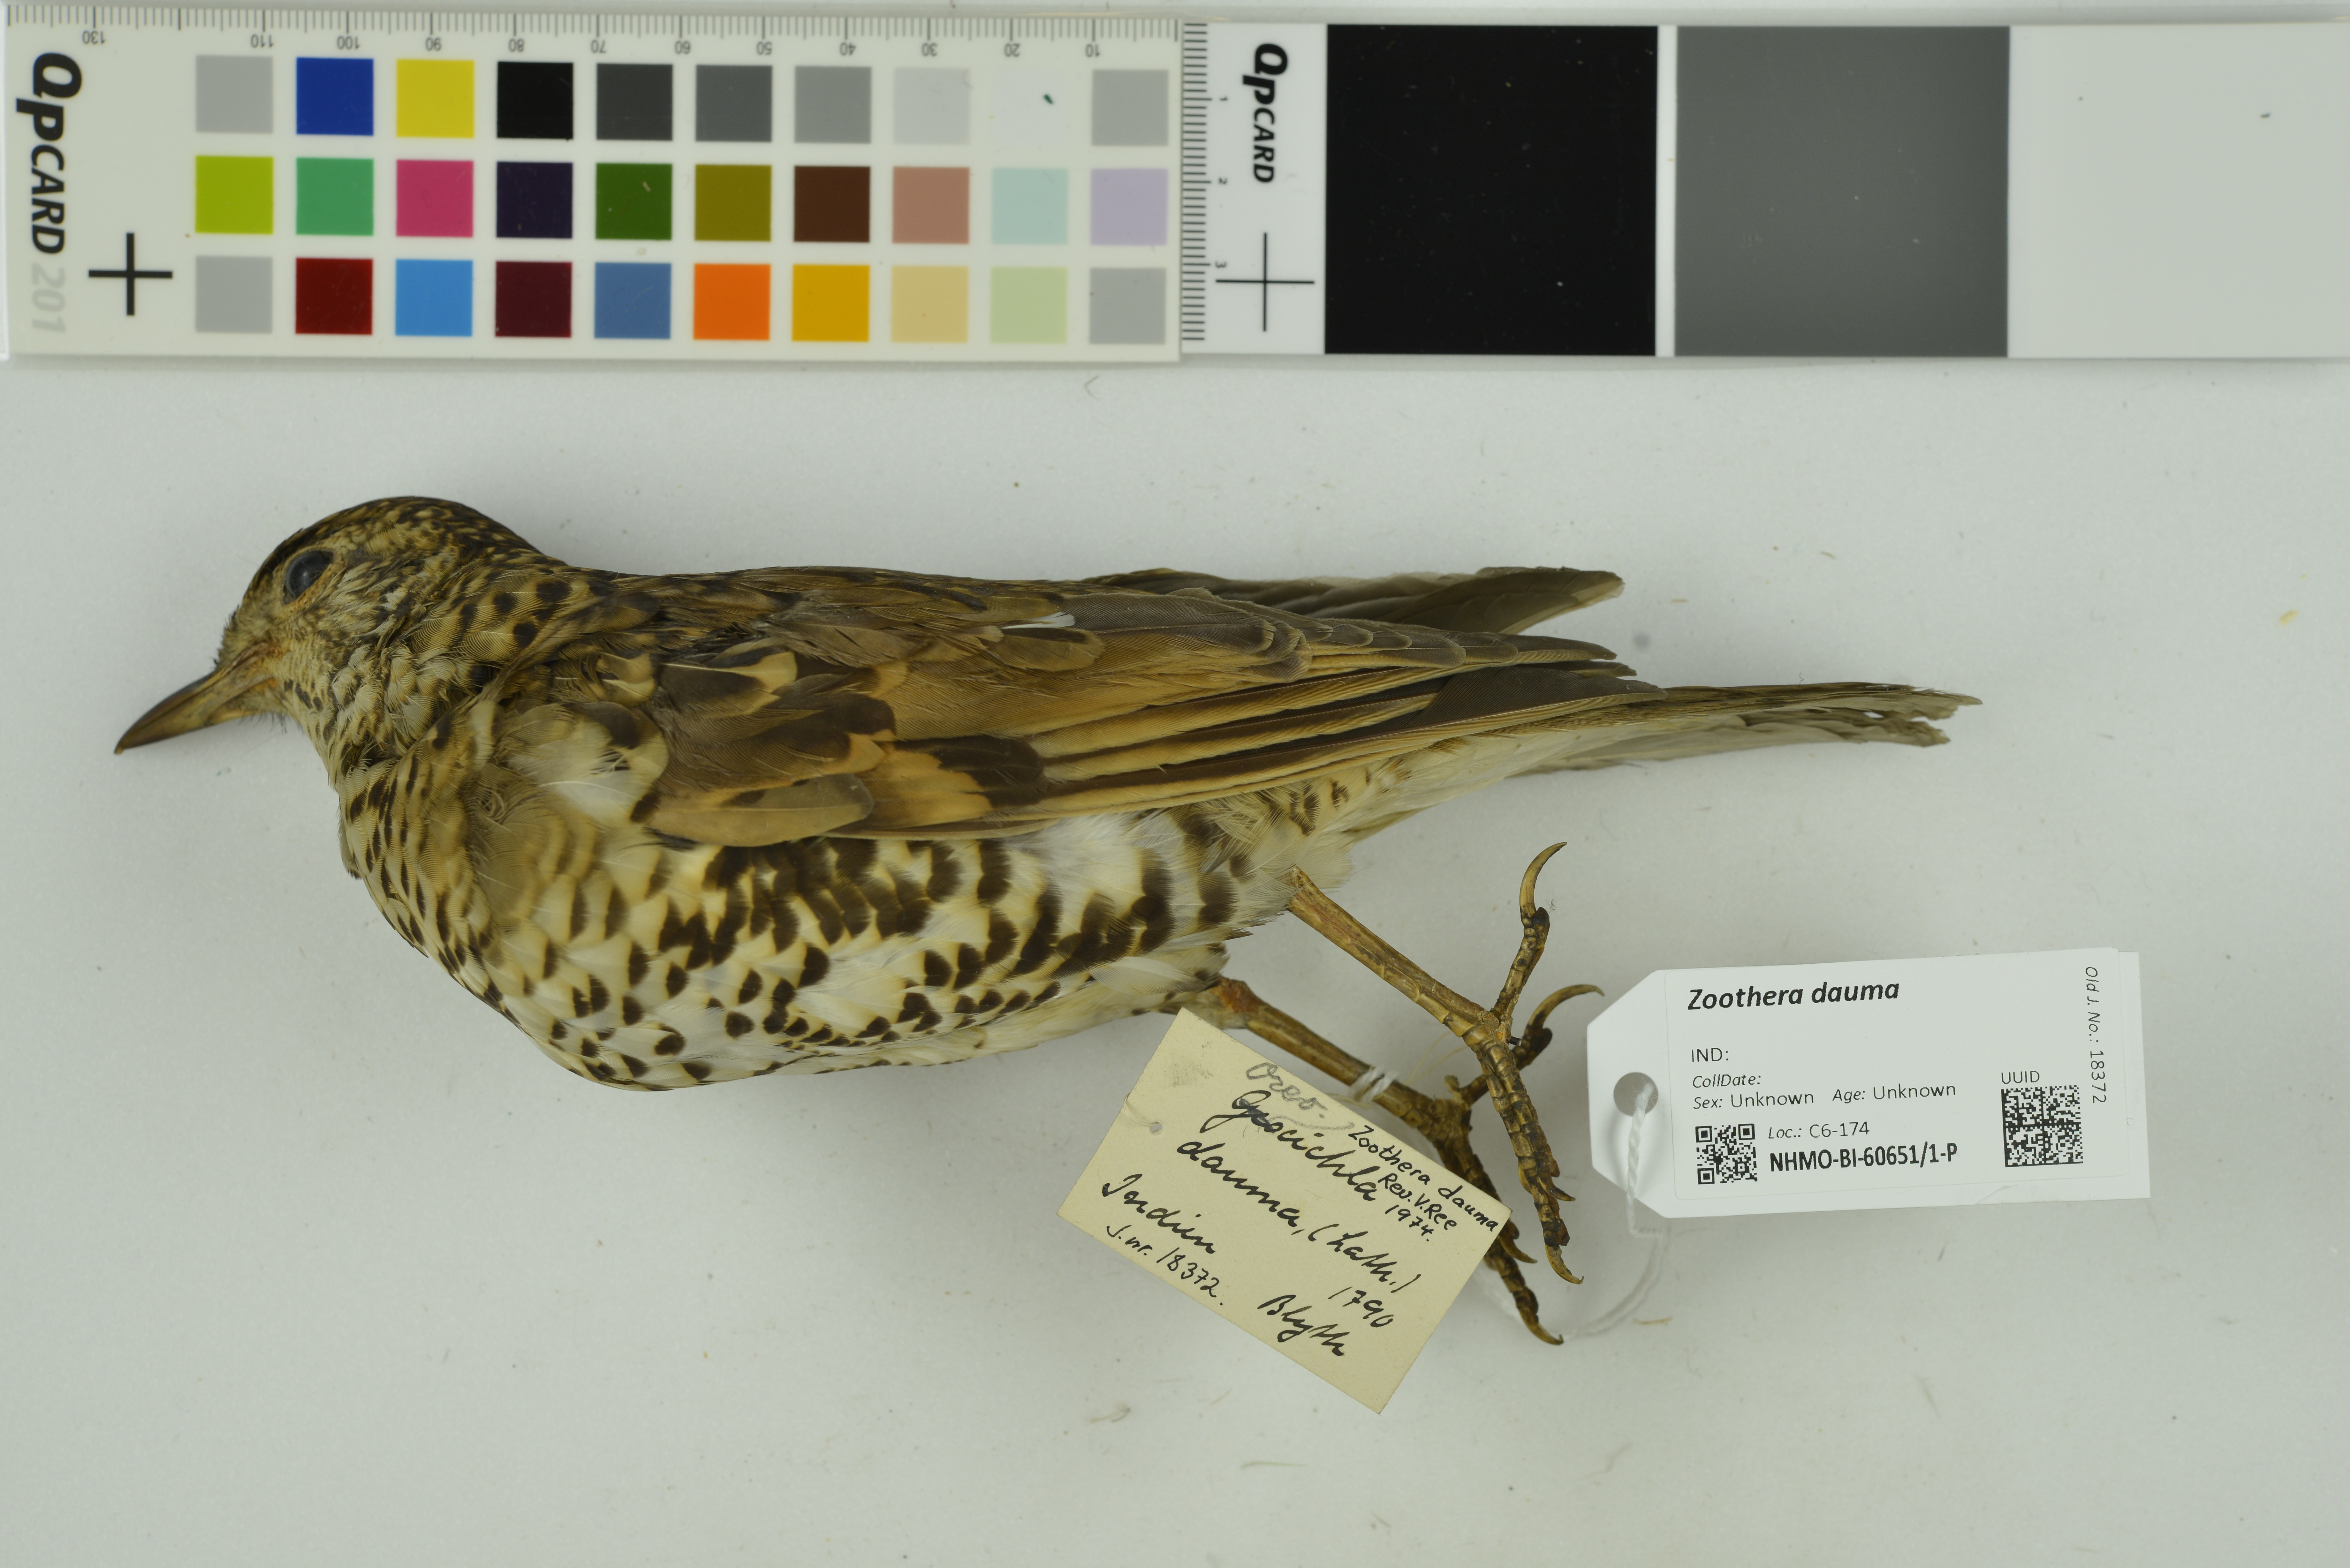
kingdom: Animalia
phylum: Chordata
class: Aves
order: Passeriformes
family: Turdidae
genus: Zoothera
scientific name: Zoothera dauma
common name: Scaly thrush
